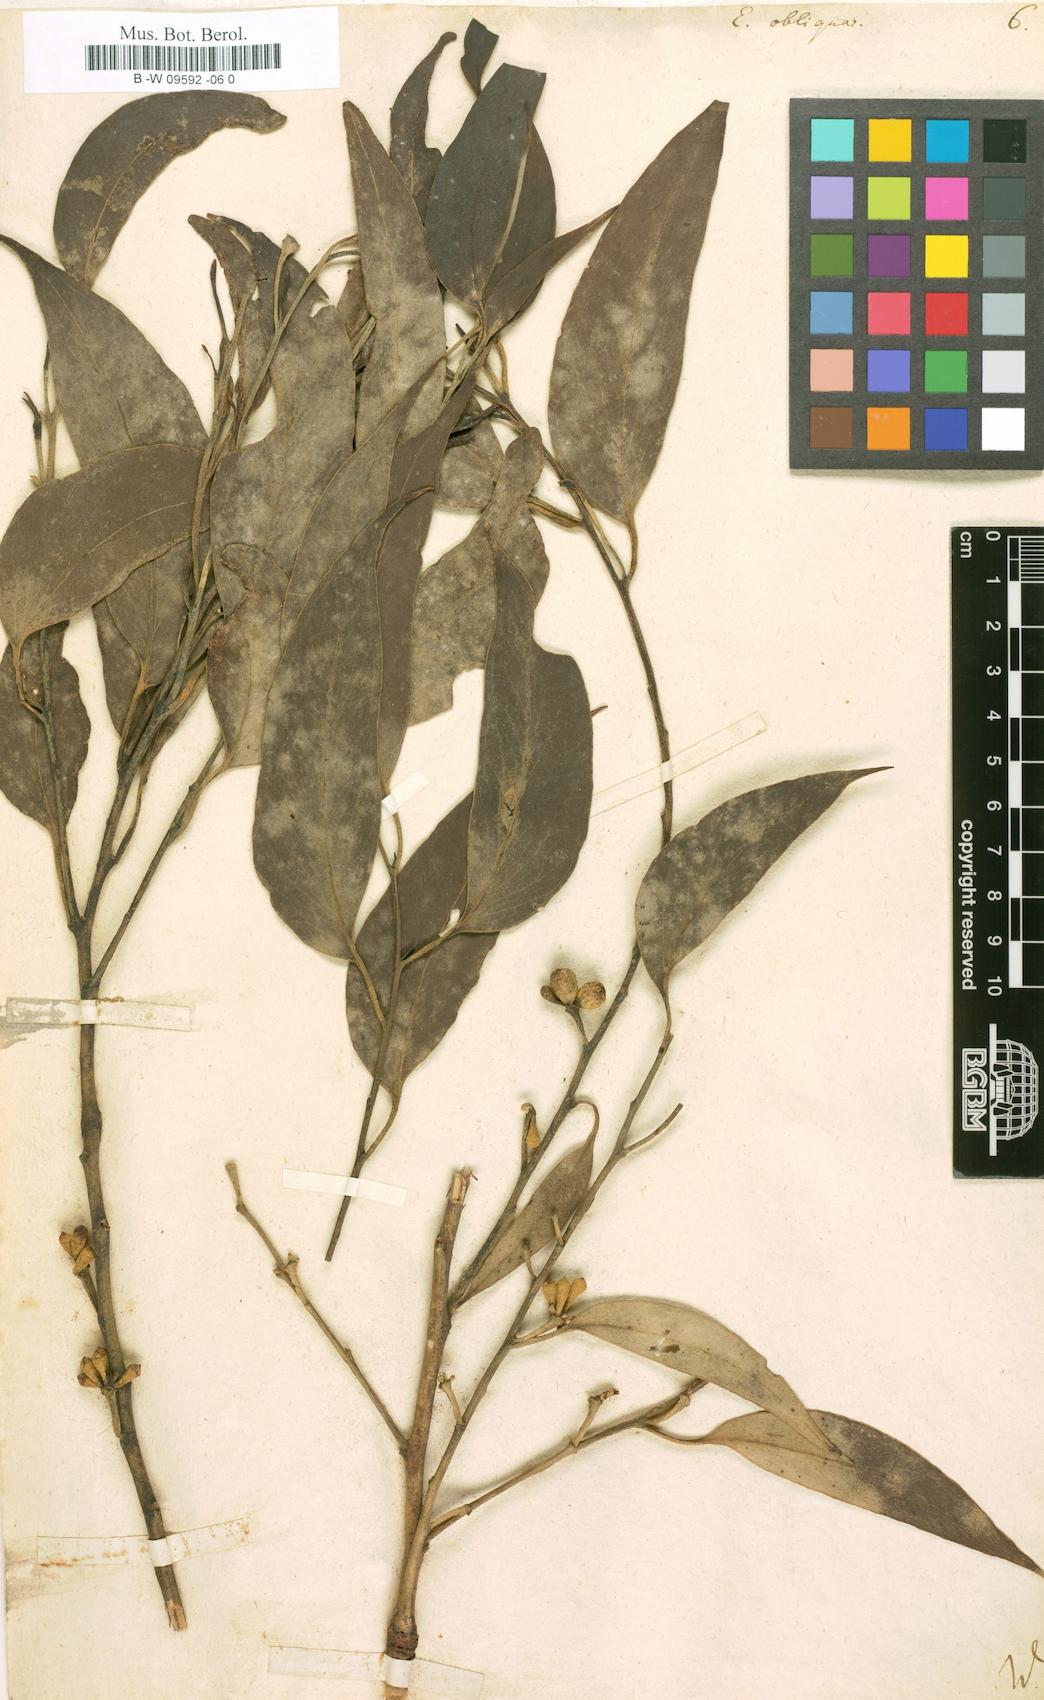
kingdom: Plantae
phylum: Tracheophyta
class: Magnoliopsida
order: Myrtales
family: Myrtaceae
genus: Eucalyptus
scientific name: Eucalyptus obliqua
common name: Messmate stringybark
